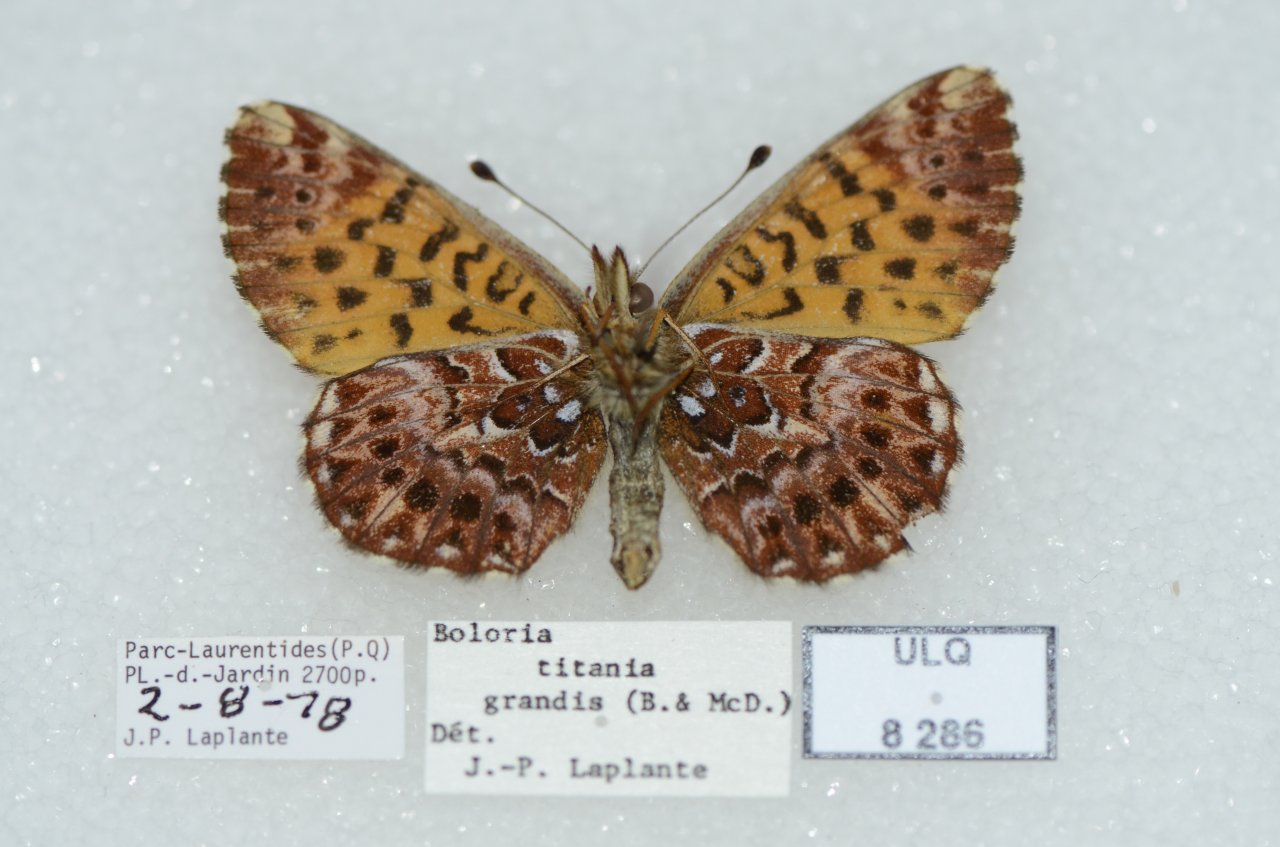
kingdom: Animalia
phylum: Arthropoda
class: Insecta
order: Lepidoptera
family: Nymphalidae
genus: Boloria
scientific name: Boloria chariclea
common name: Arctic Fritillary
